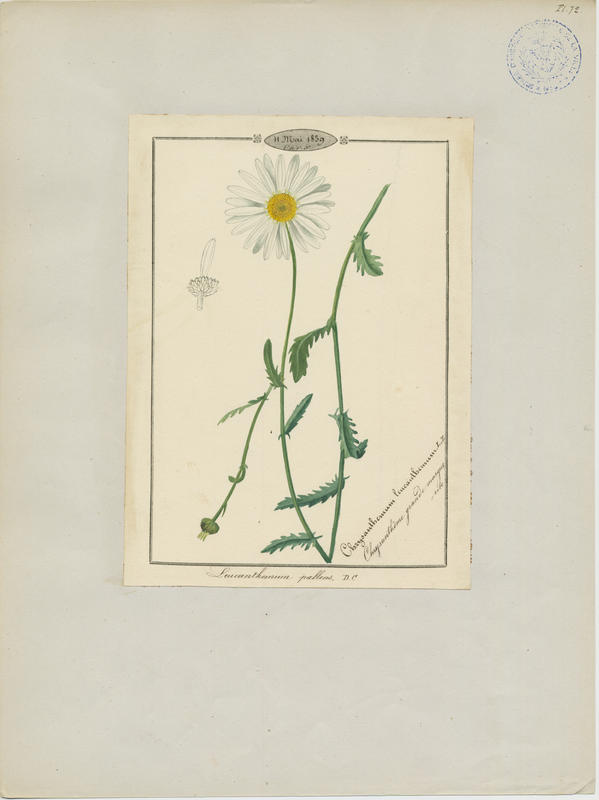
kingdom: Plantae
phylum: Tracheophyta
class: Magnoliopsida
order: Asterales
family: Asteraceae
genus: Leucanthemum
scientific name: Leucanthemum pallens
